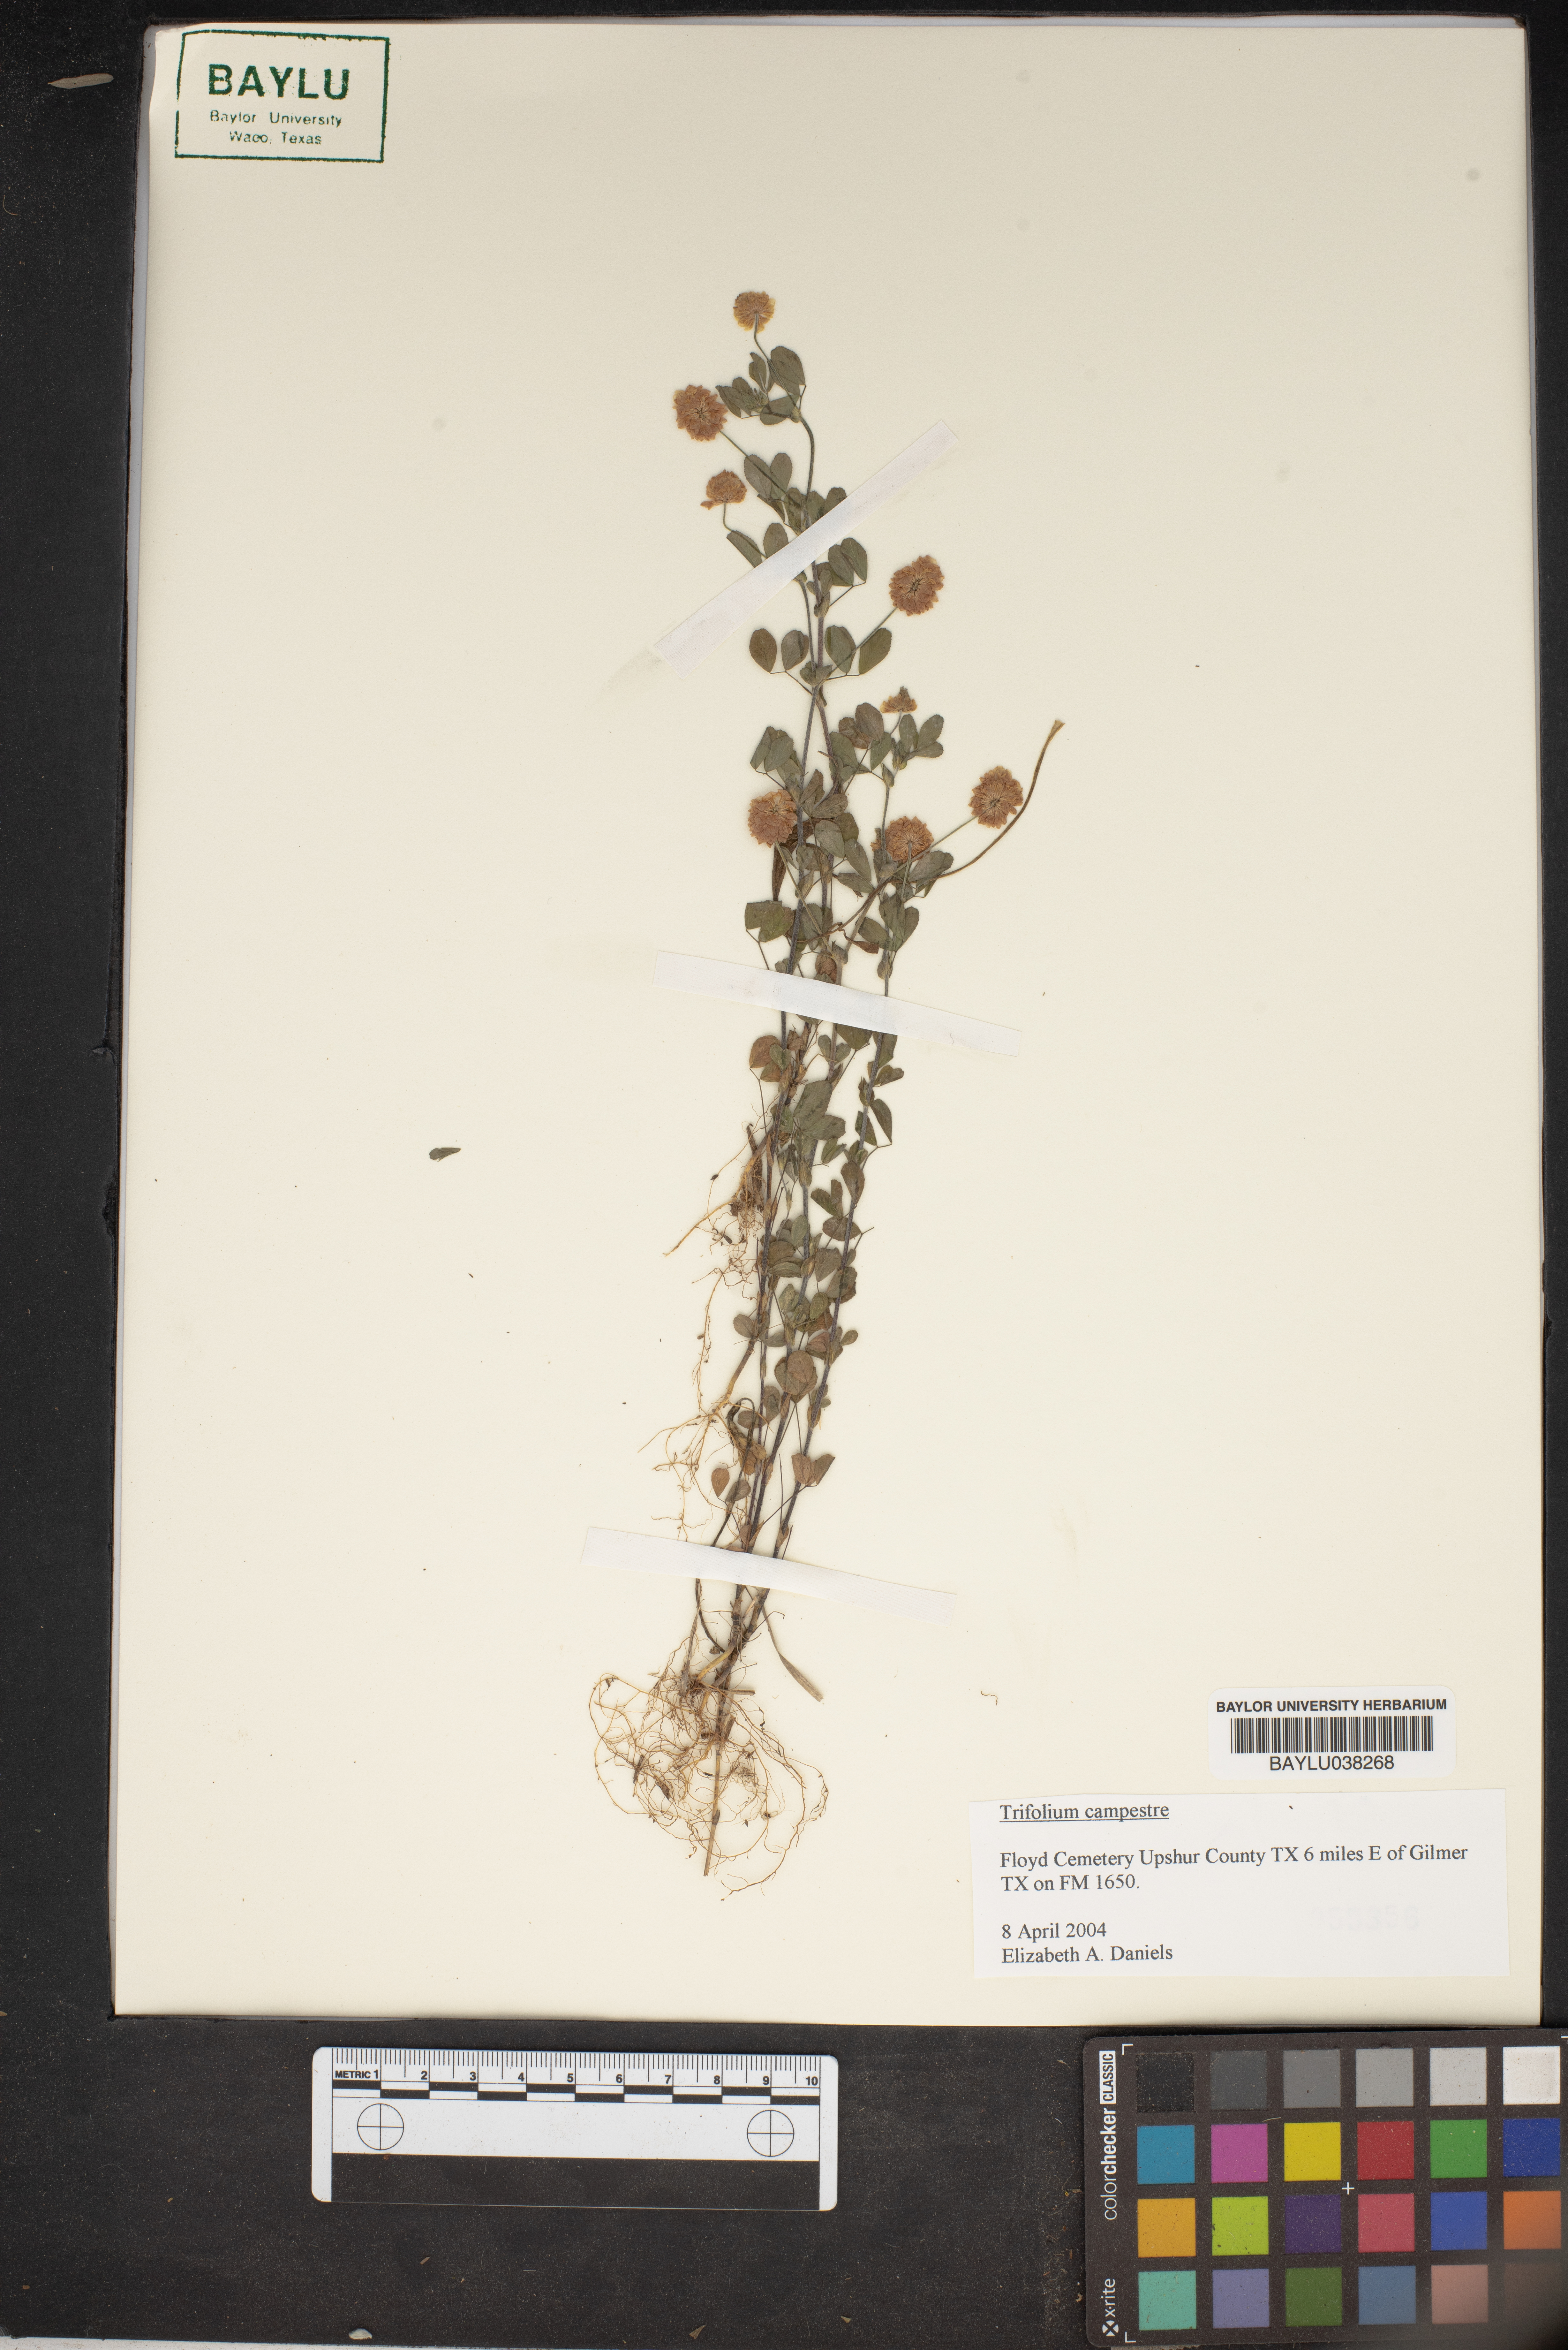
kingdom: Plantae
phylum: Tracheophyta
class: Magnoliopsida
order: Fabales
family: Fabaceae
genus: Trifolium
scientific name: Trifolium campestre
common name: Field clover
